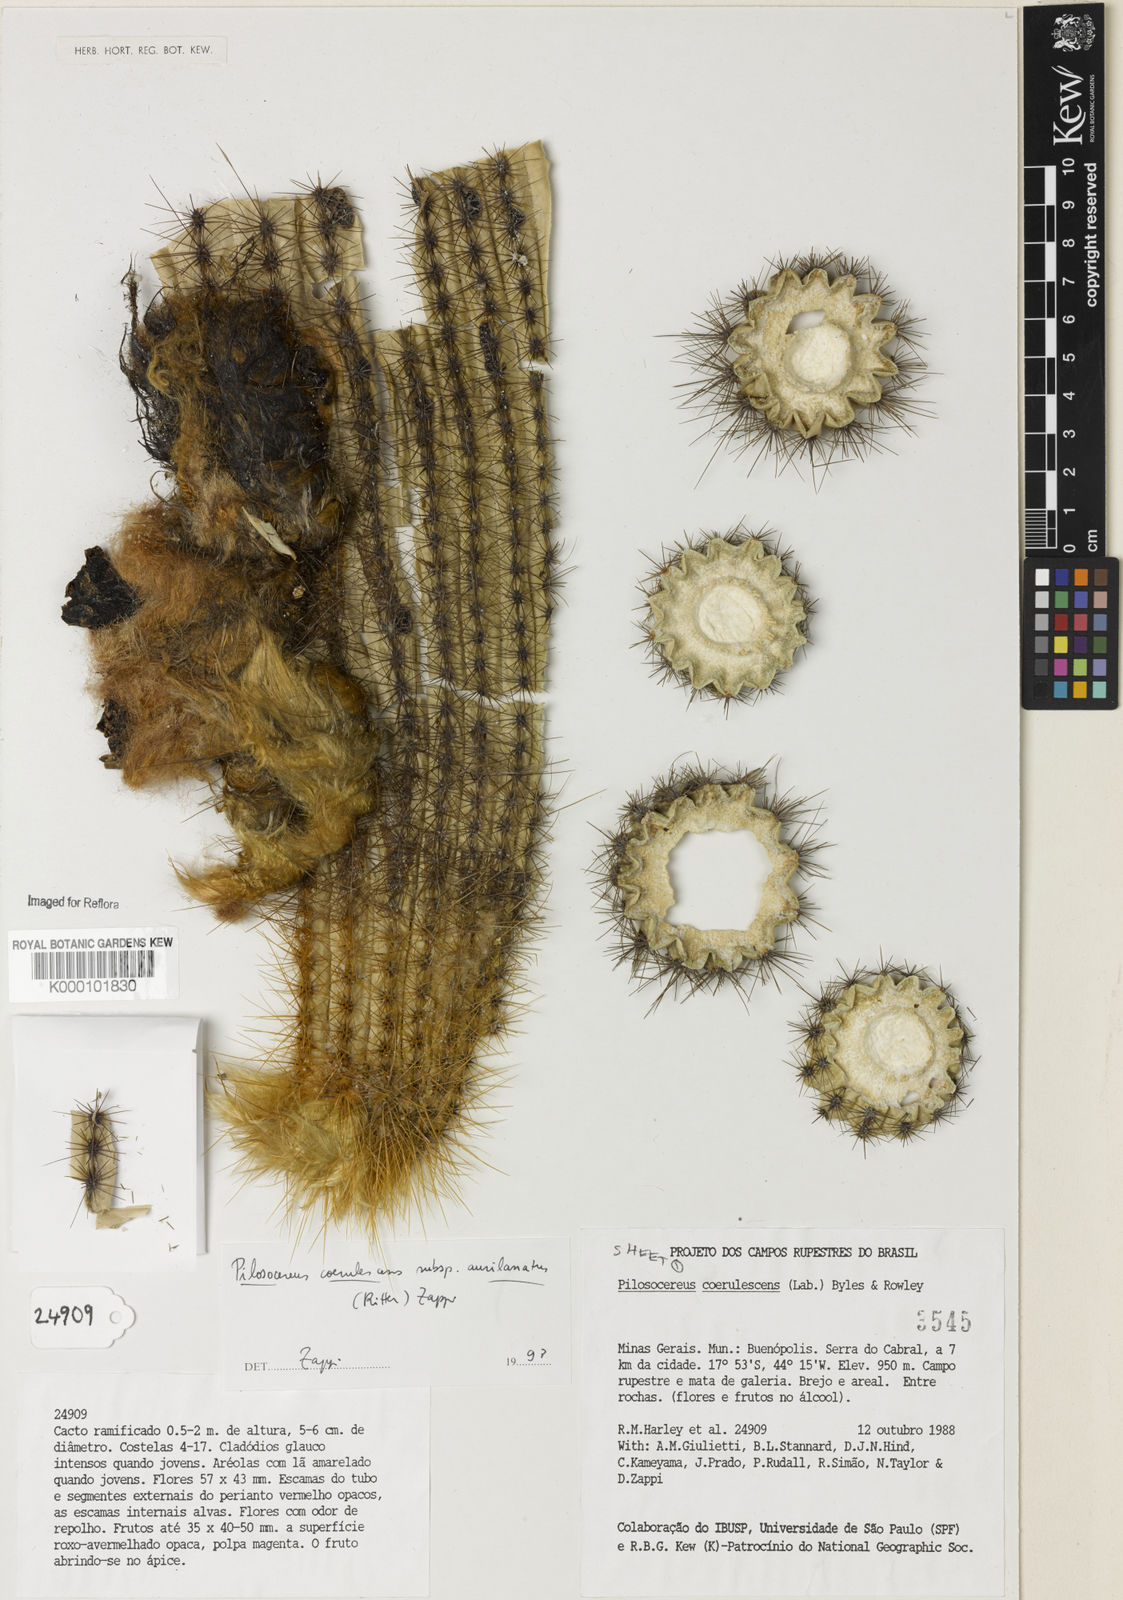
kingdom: Plantae
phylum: Tracheophyta
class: Magnoliopsida
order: Caryophyllales
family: Cactaceae
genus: Pilosocereus
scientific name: Pilosocereus aurisetus
